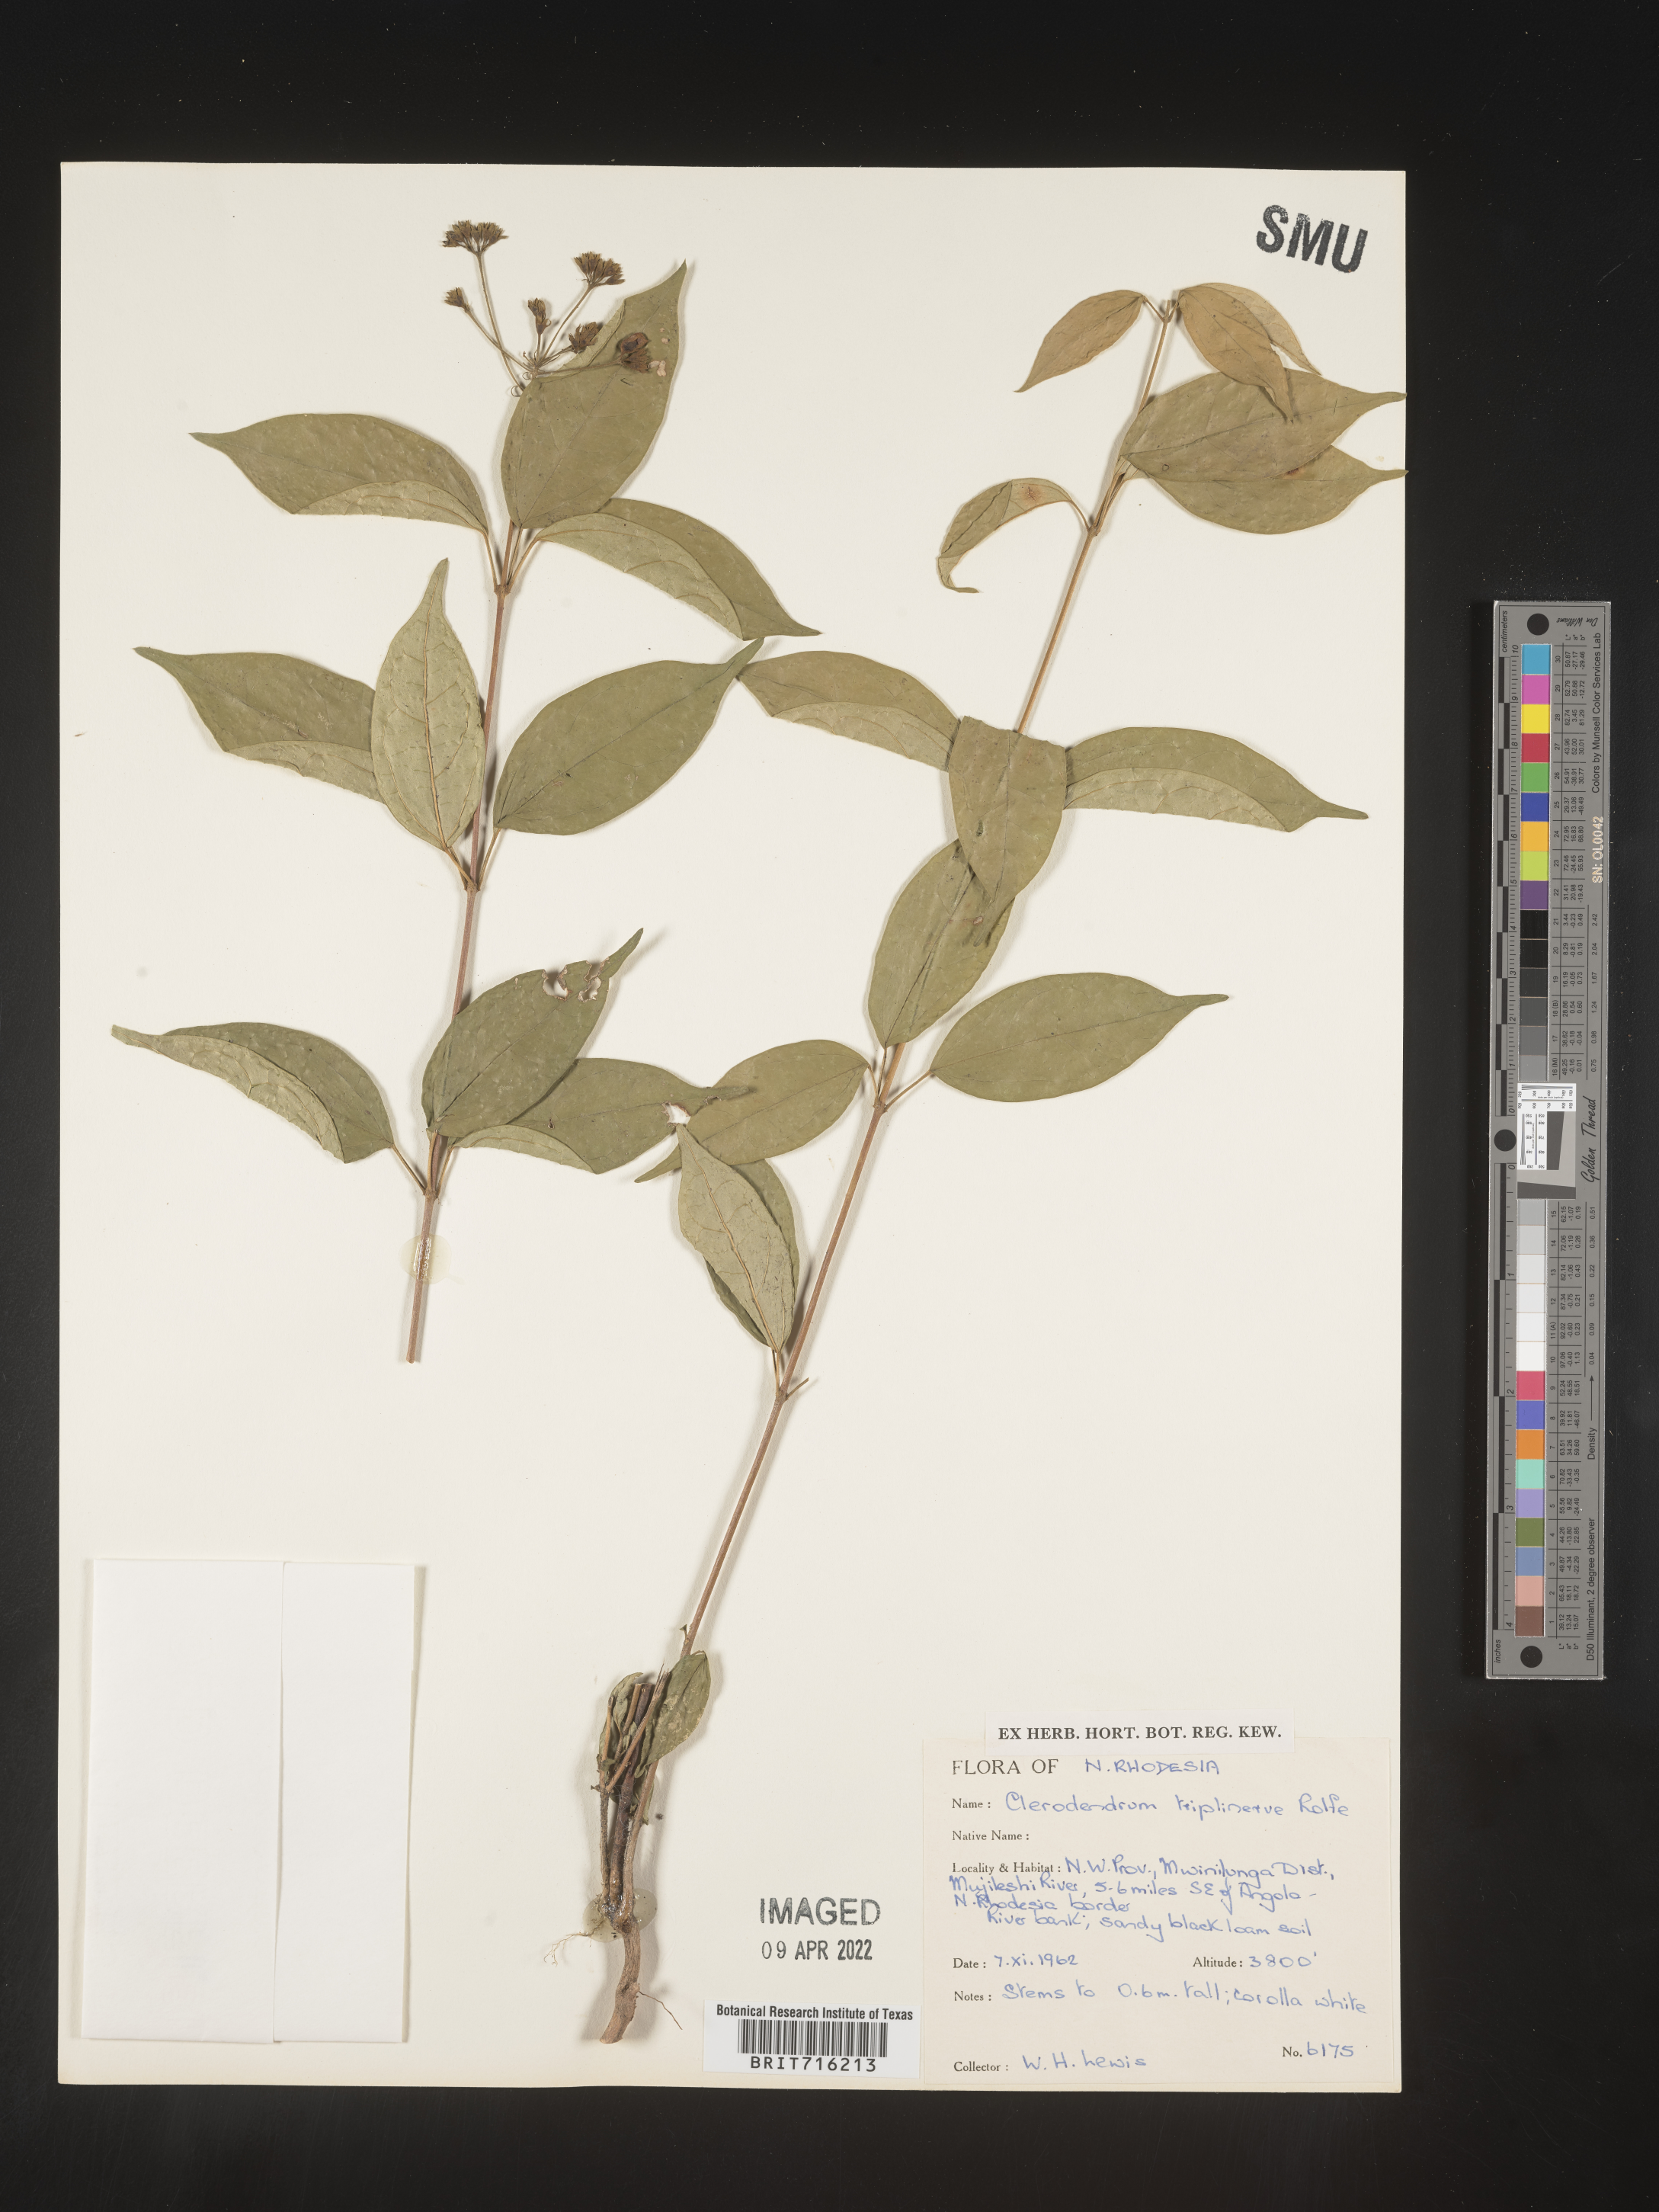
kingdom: Plantae
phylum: Tracheophyta
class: Magnoliopsida
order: Lamiales
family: Lamiaceae
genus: Clerodendrum
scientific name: Clerodendrum
